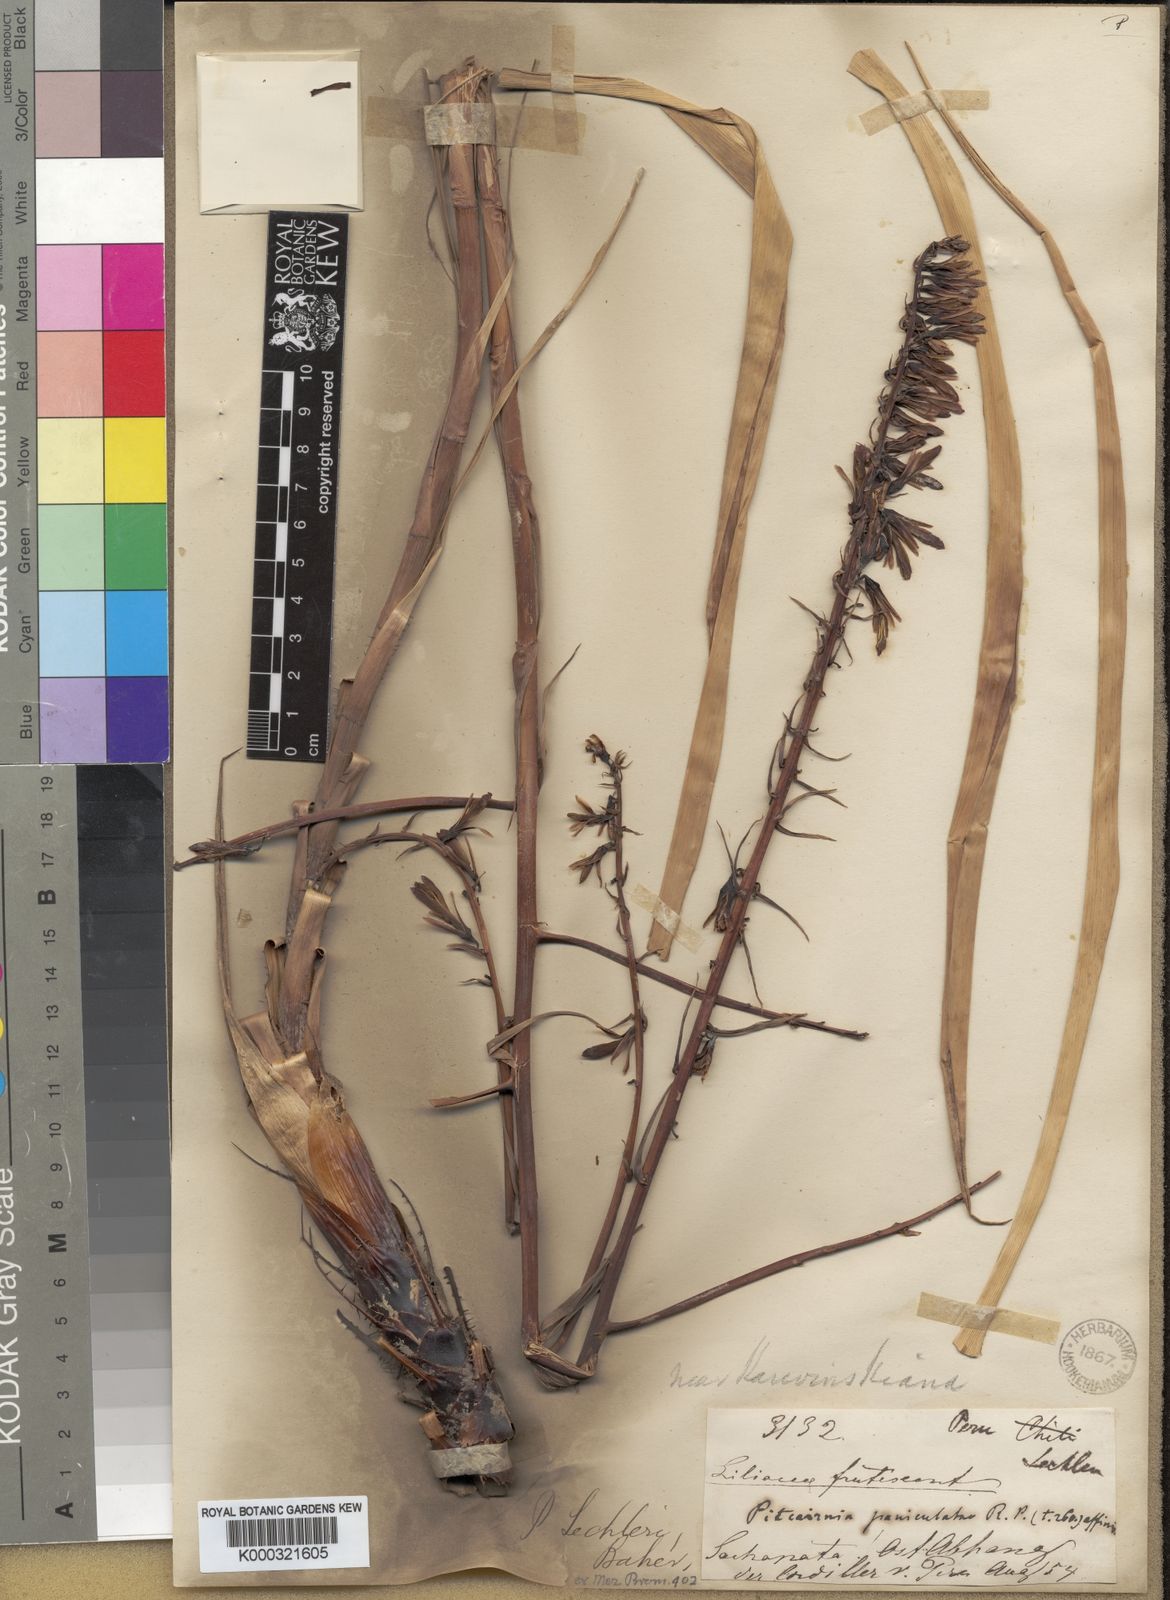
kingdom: Plantae
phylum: Tracheophyta
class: Liliopsida
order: Poales
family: Bromeliaceae
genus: Pitcairnia
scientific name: Pitcairnia lechleri
